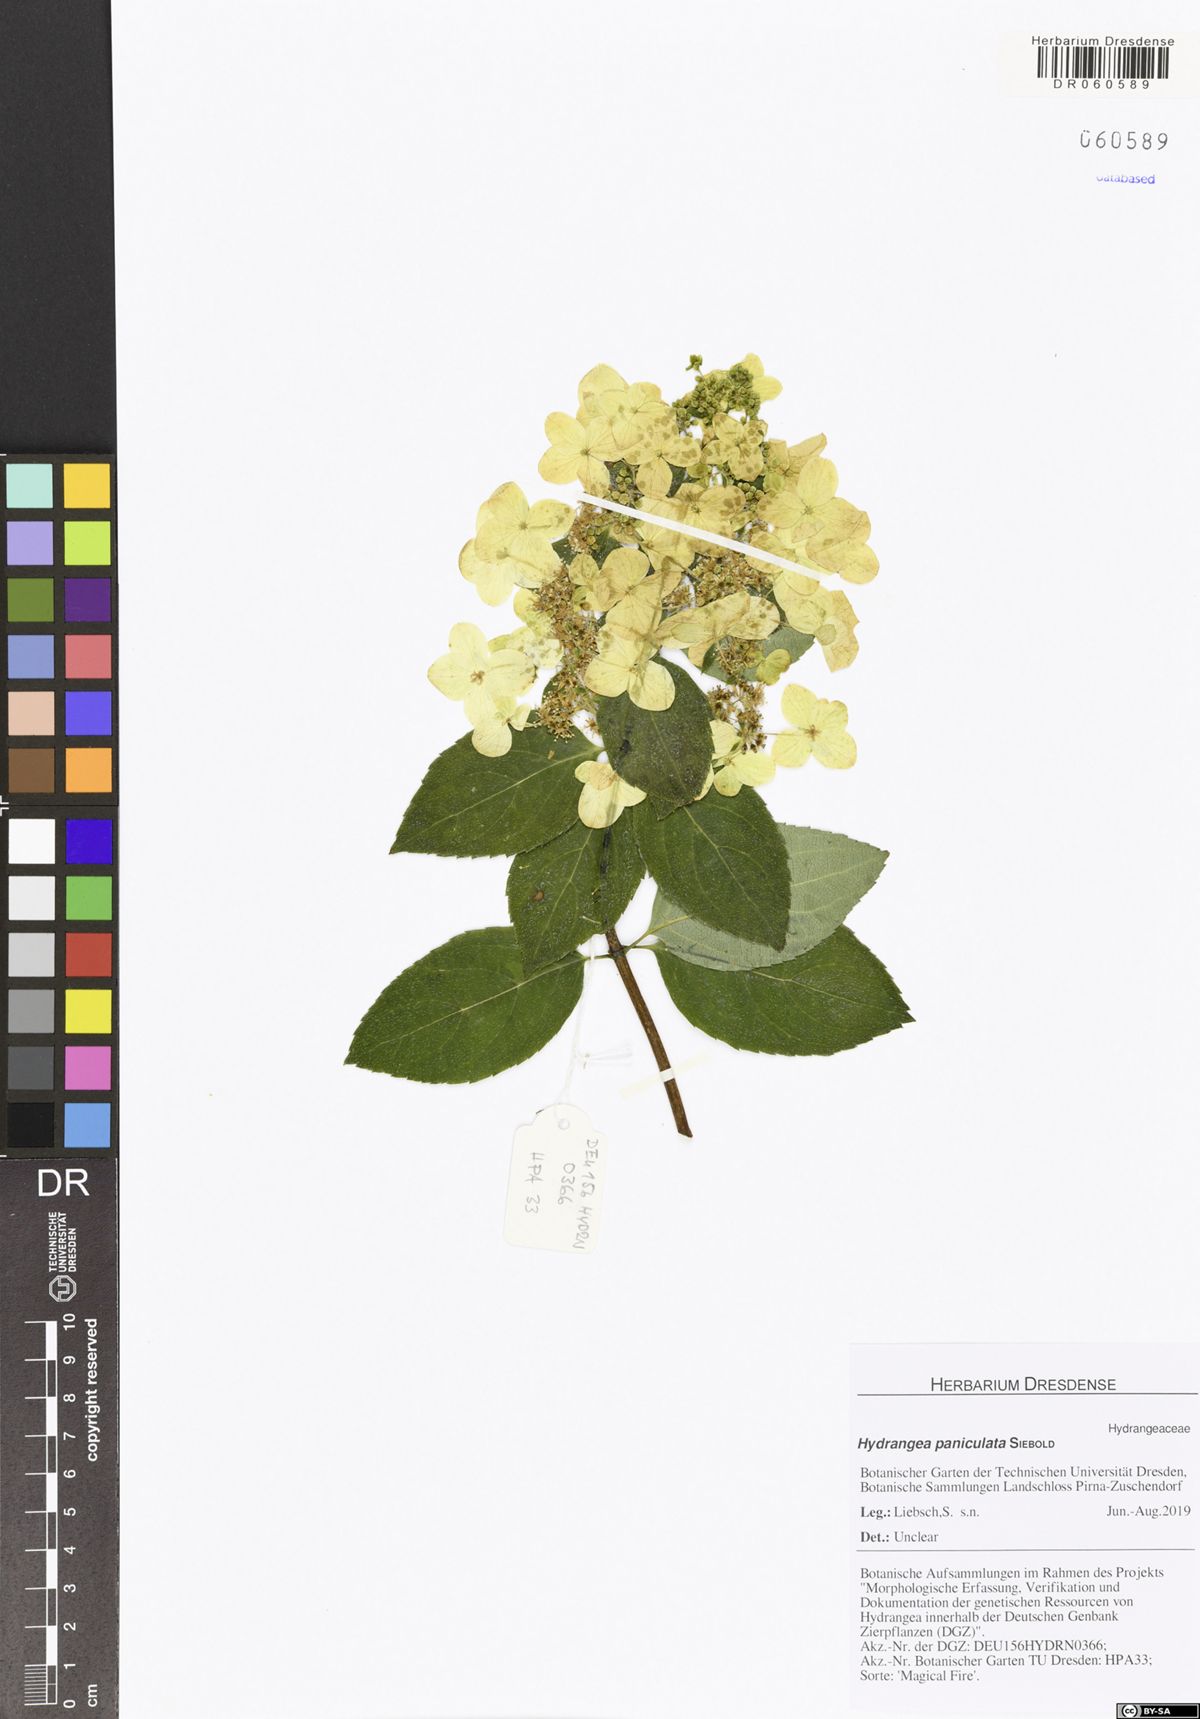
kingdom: Plantae
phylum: Tracheophyta
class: Magnoliopsida
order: Cornales
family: Hydrangeaceae
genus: Hydrangea
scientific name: Hydrangea paniculata
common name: Panicled hydrangea
